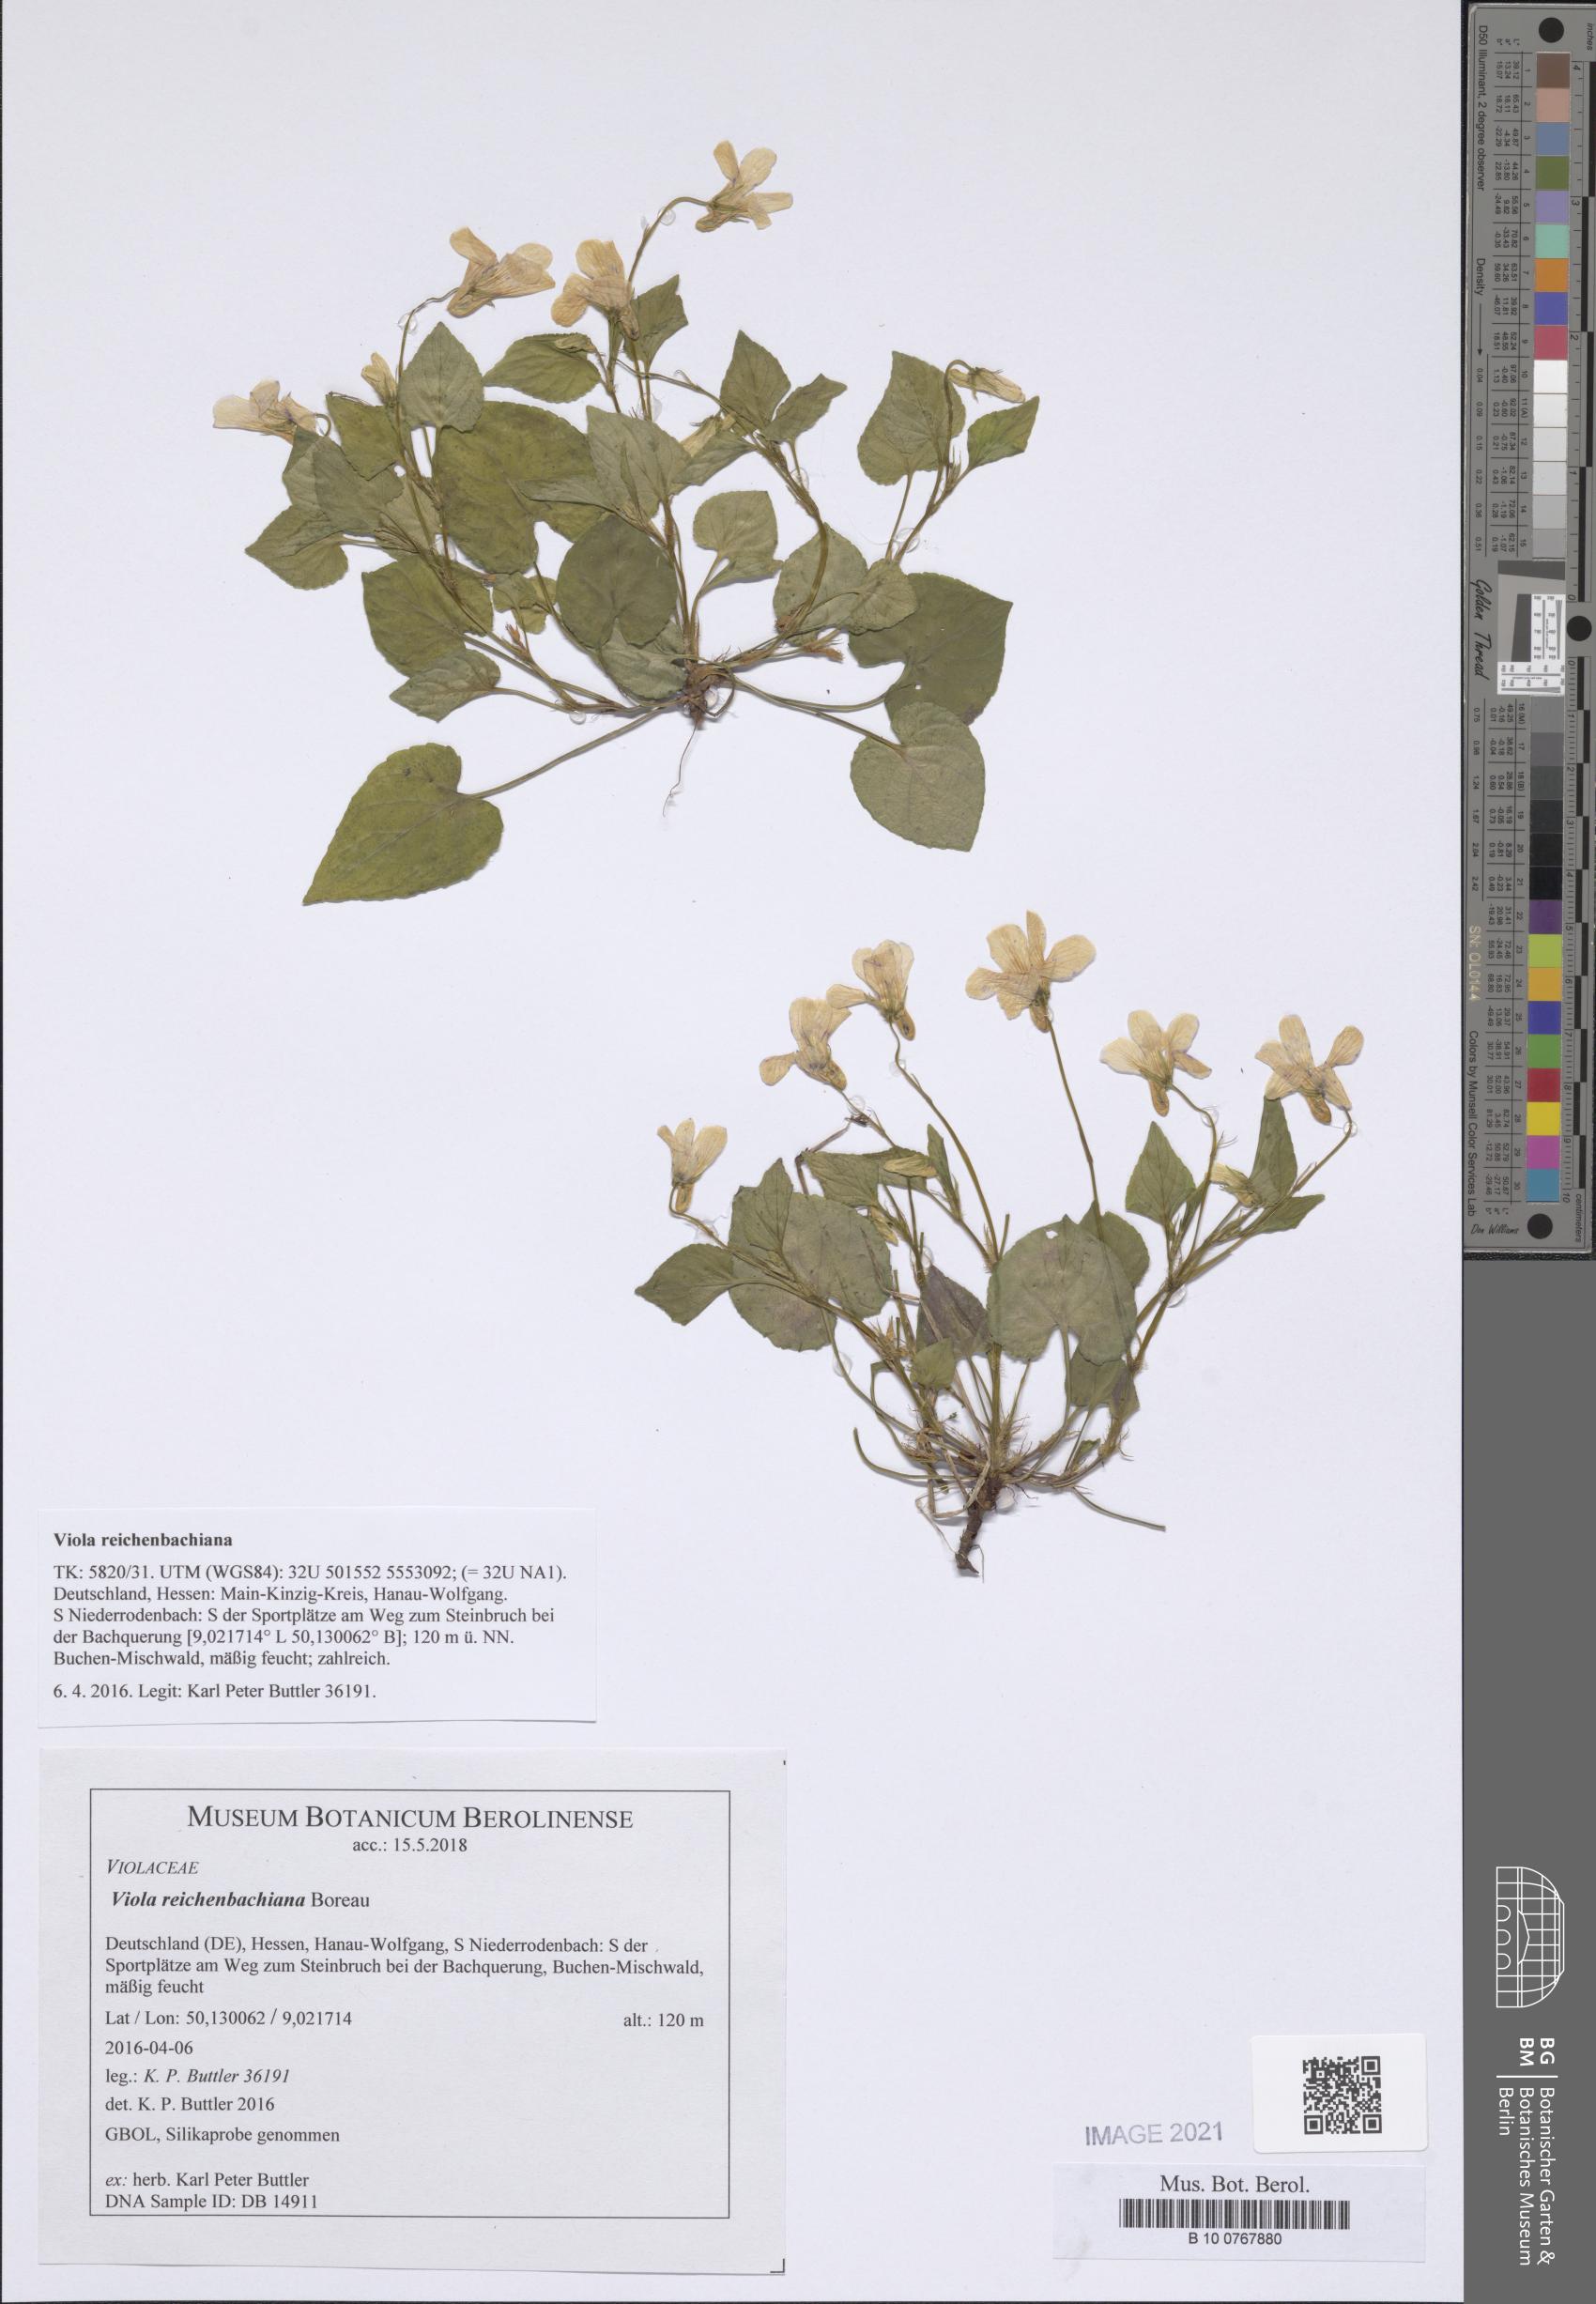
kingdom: Plantae
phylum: Tracheophyta
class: Magnoliopsida
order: Malpighiales
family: Violaceae
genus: Viola
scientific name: Viola reichenbachiana
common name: Early dog-violet
